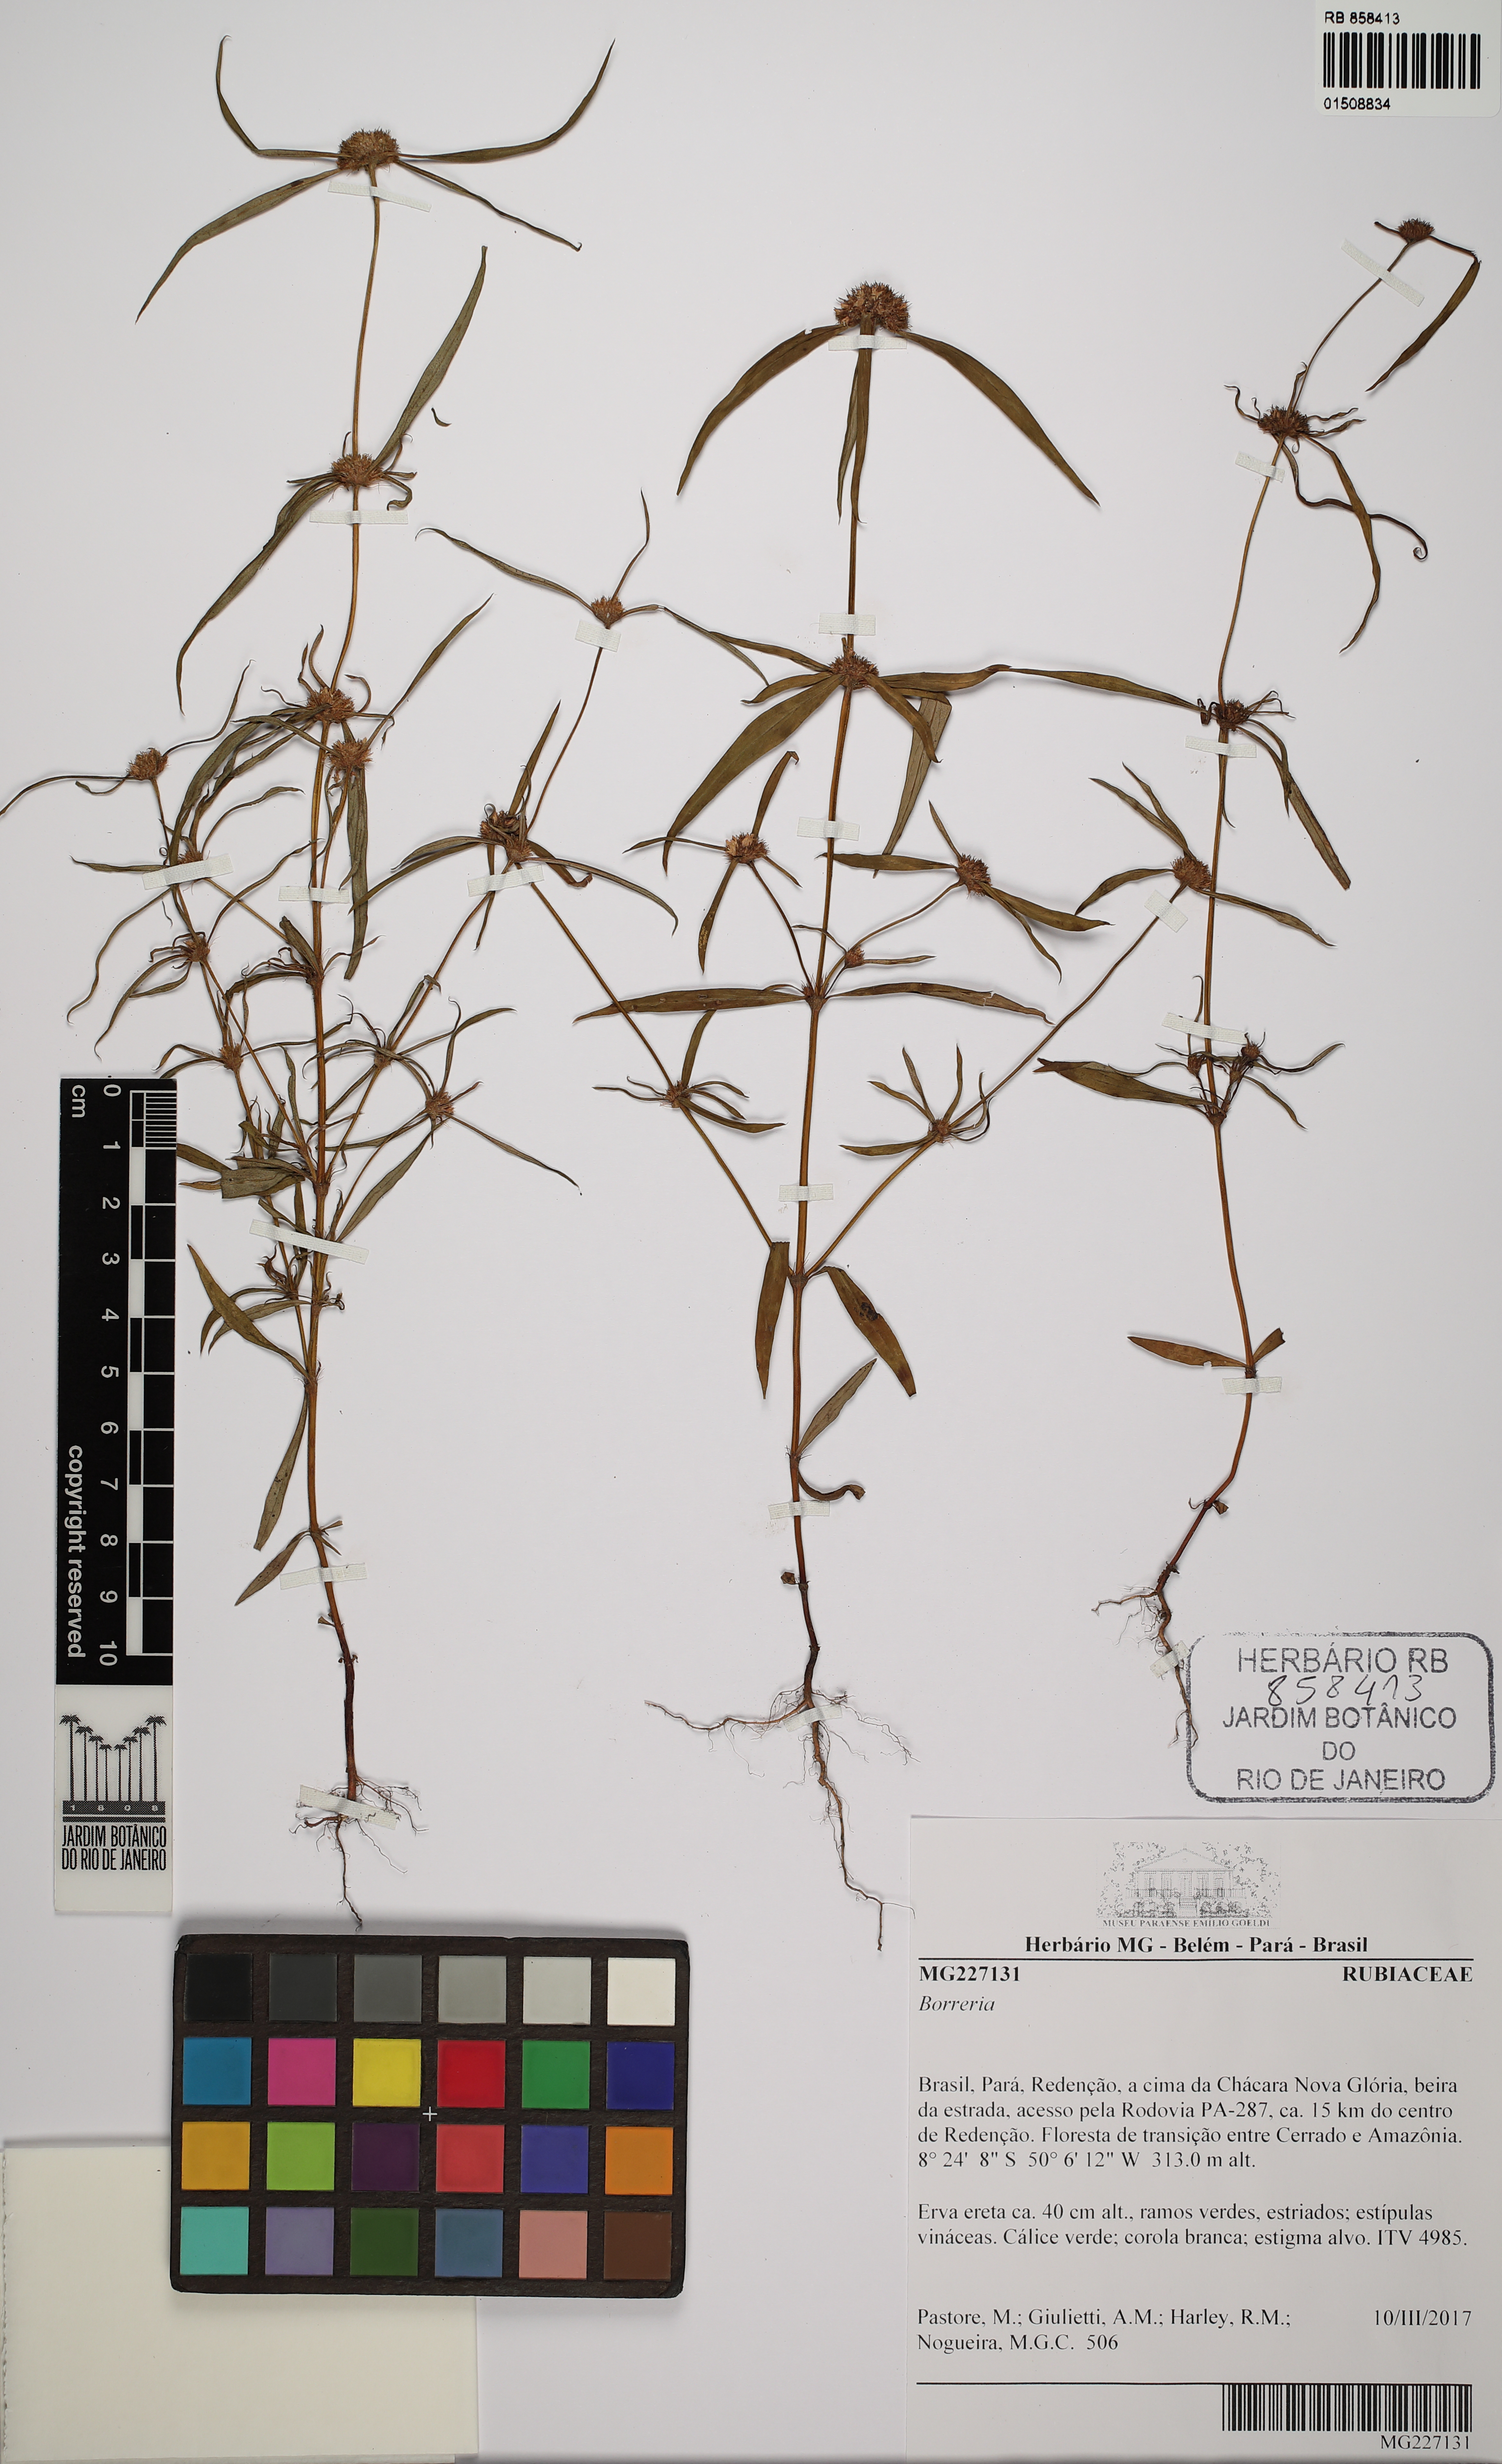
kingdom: Plantae
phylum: Tracheophyta
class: Magnoliopsida
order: Gentianales
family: Rubiaceae
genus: Spermacoce
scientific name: Spermacoce
